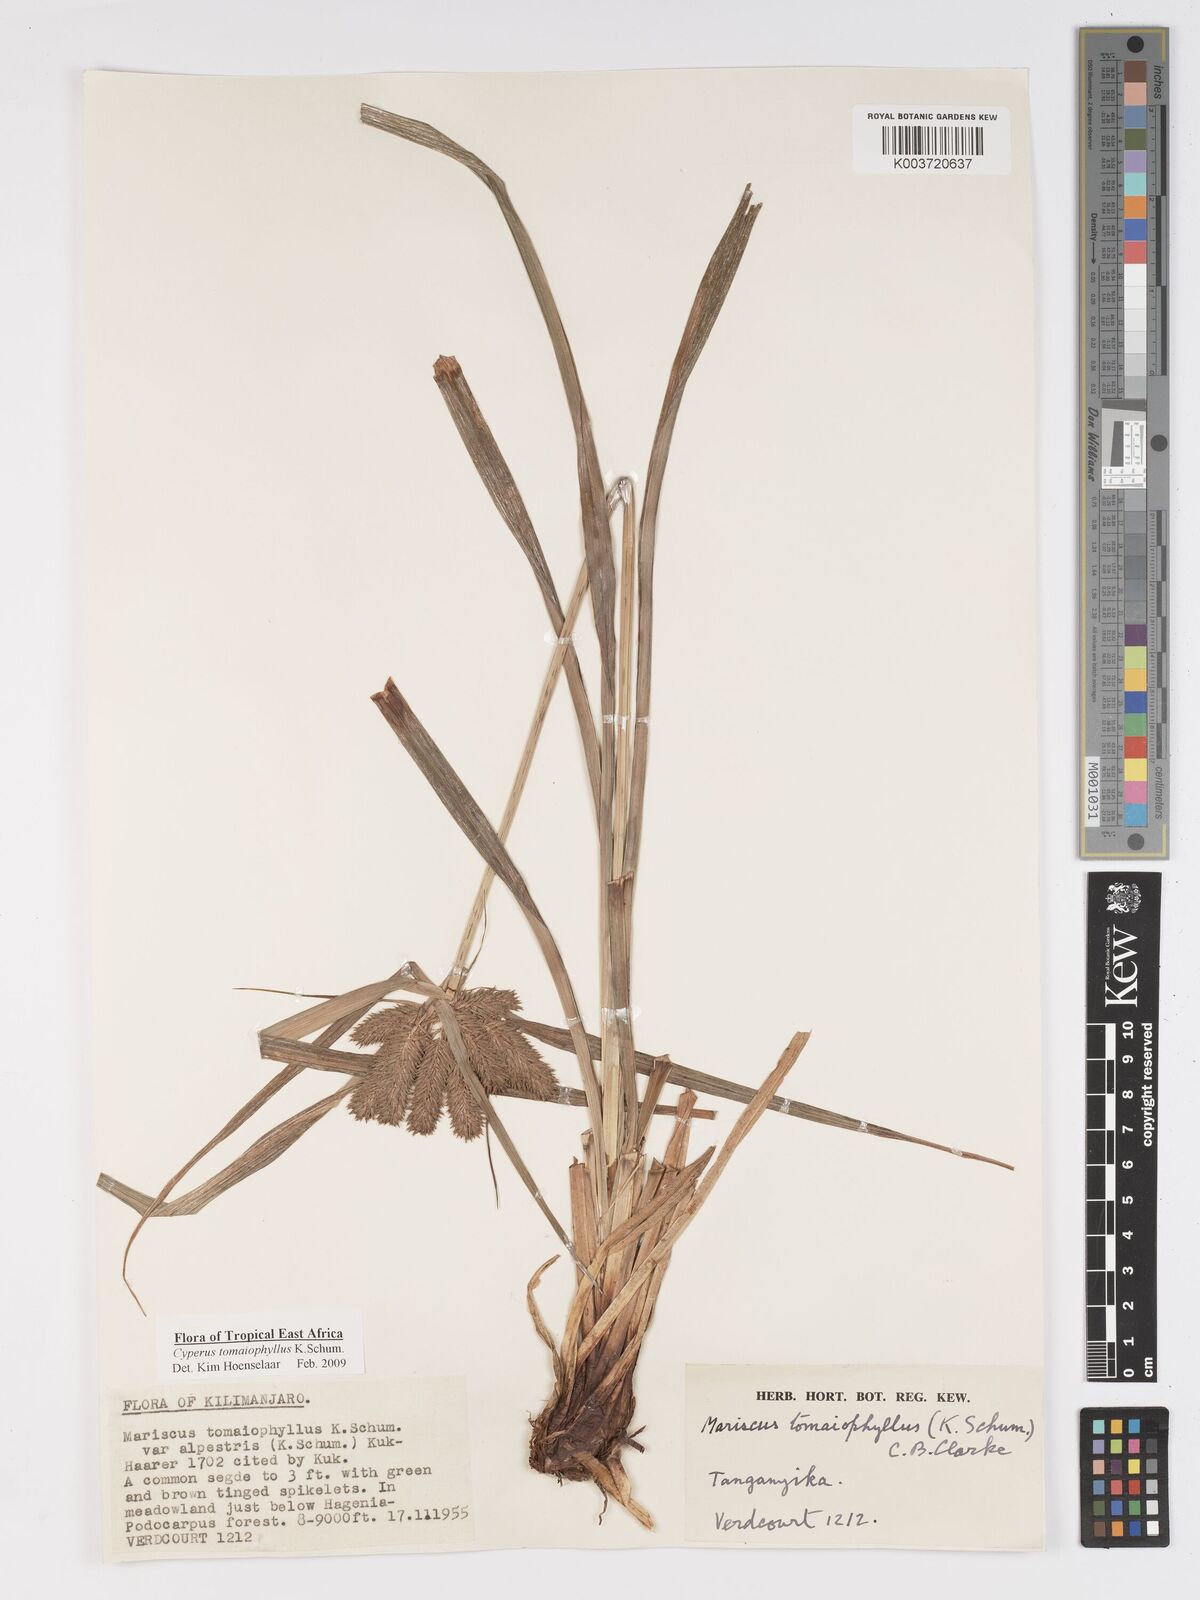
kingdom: Plantae
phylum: Tracheophyta
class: Liliopsida
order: Poales
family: Cyperaceae
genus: Cyperus
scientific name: Cyperus tomaiophyllus
